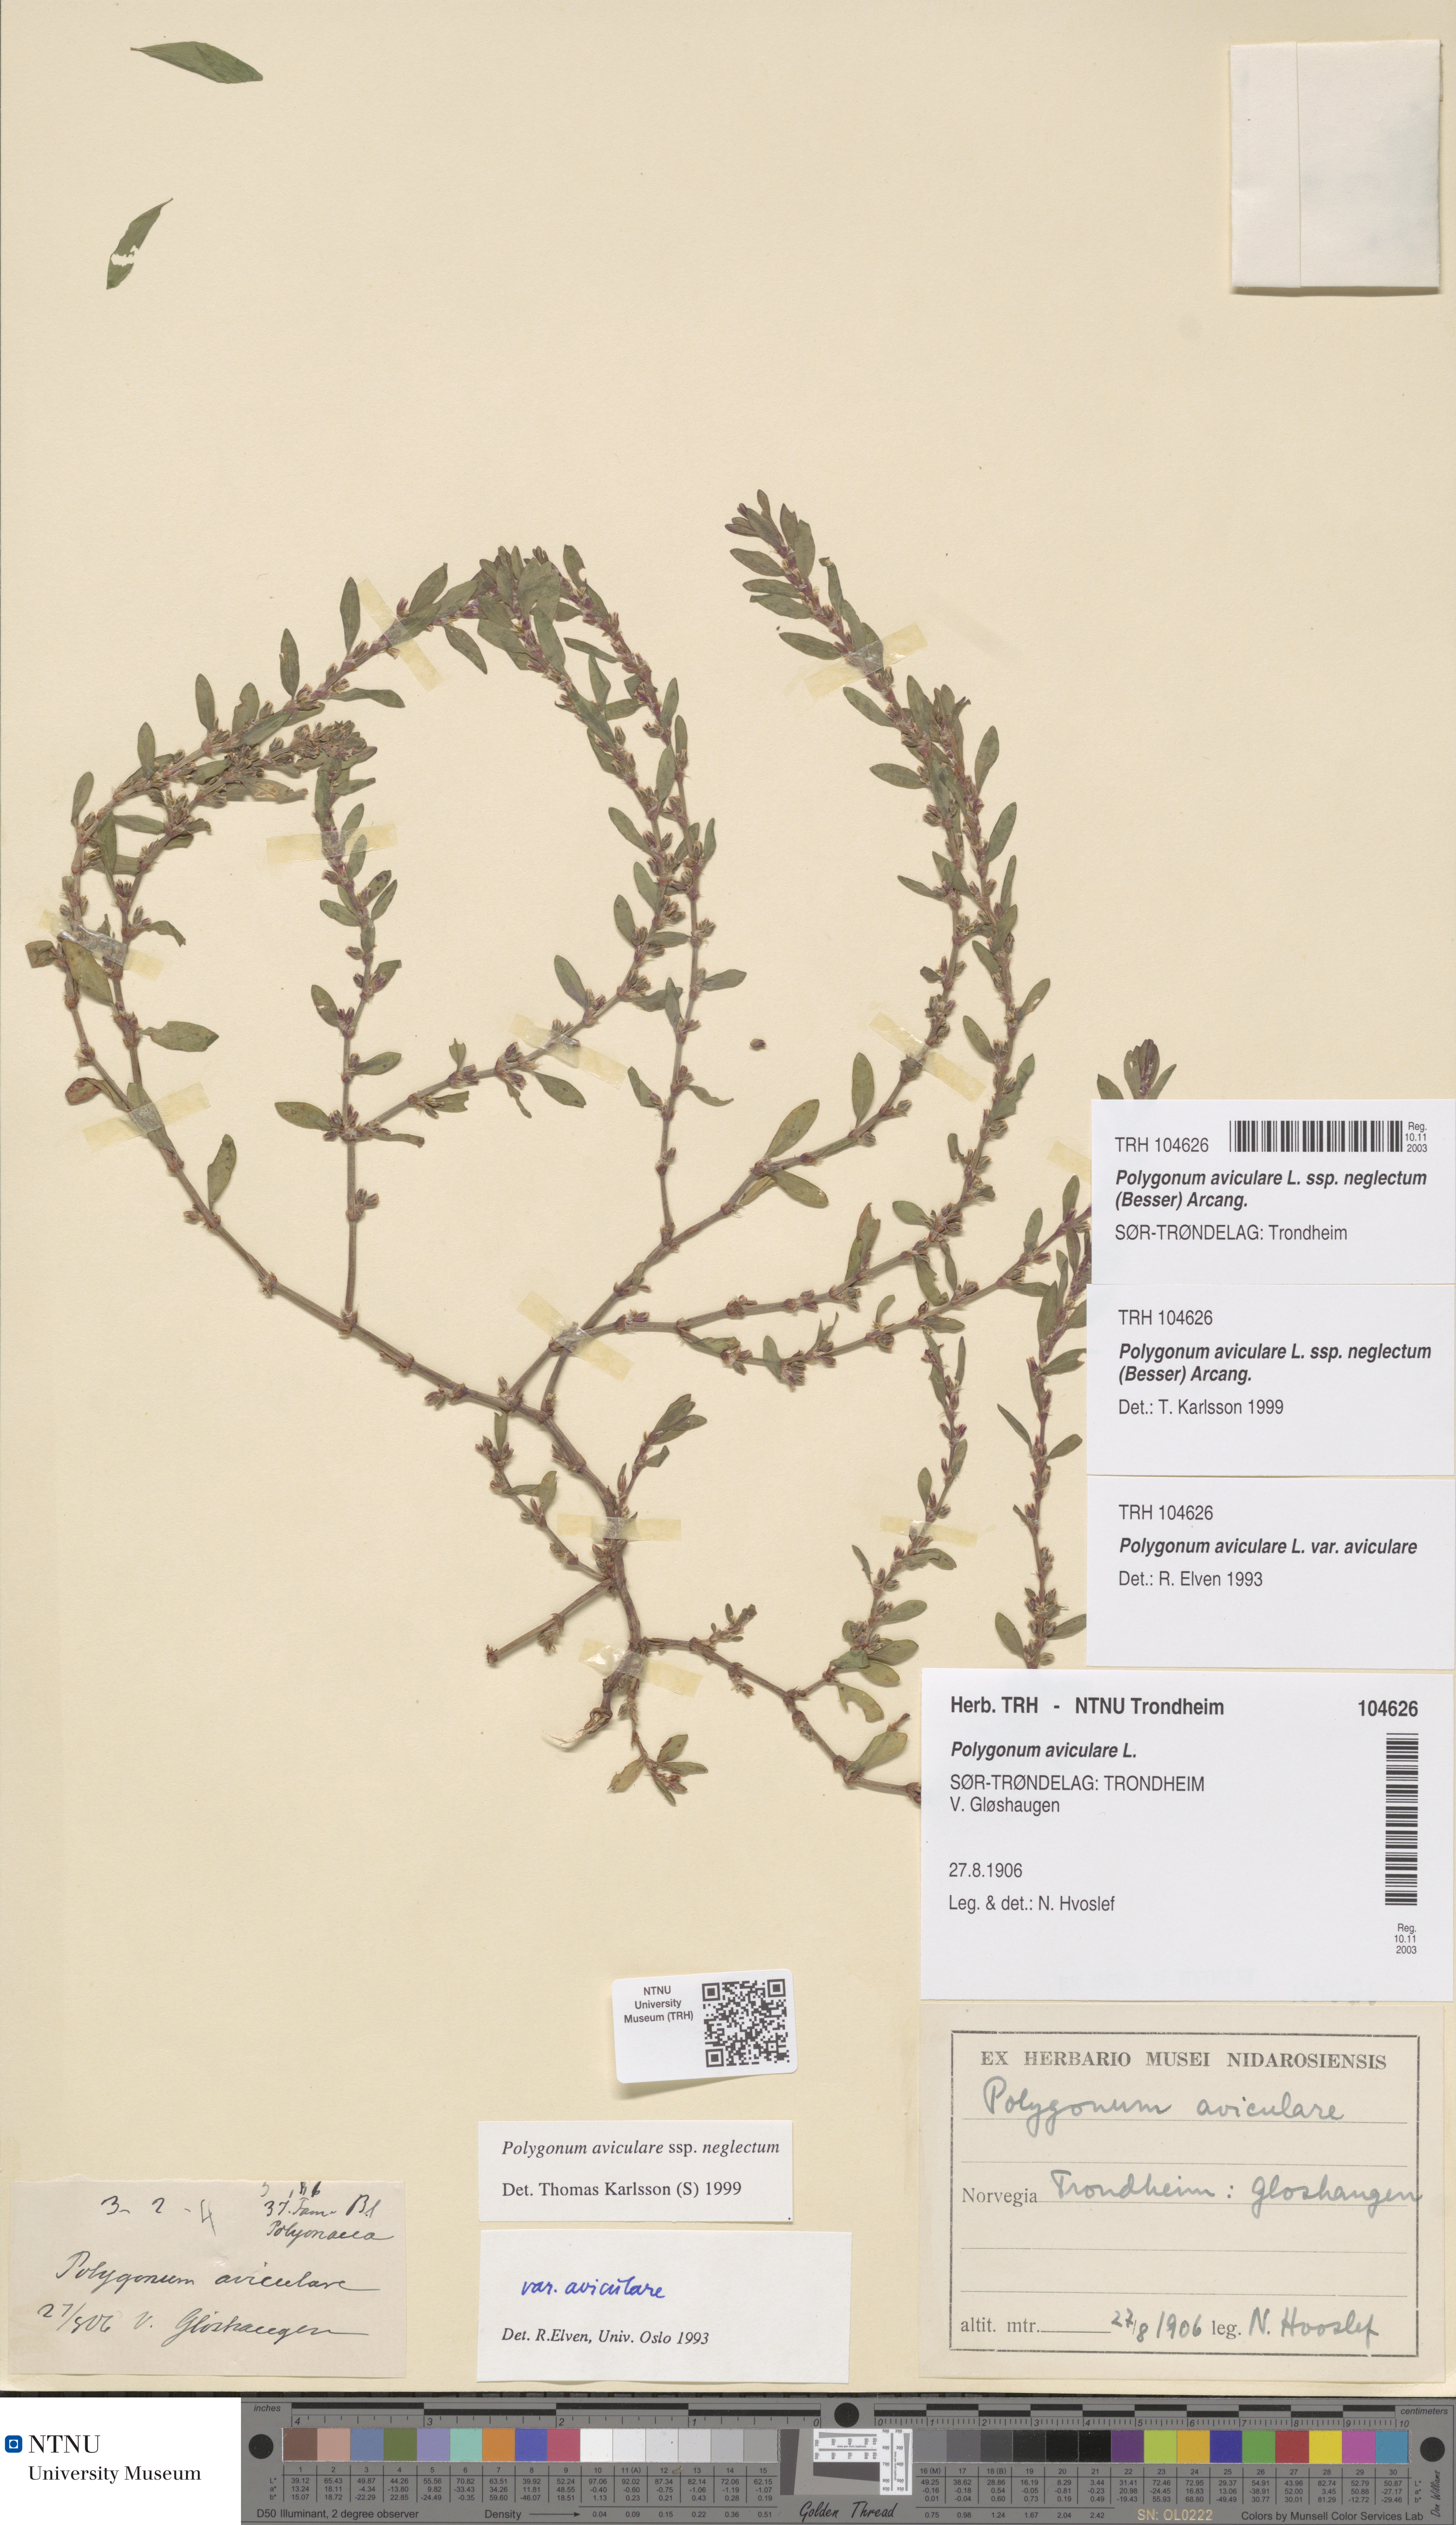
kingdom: Plantae
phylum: Tracheophyta
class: Magnoliopsida
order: Caryophyllales
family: Polygonaceae
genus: Polygonum
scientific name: Polygonum aviculare
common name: Prostrate knotweed
